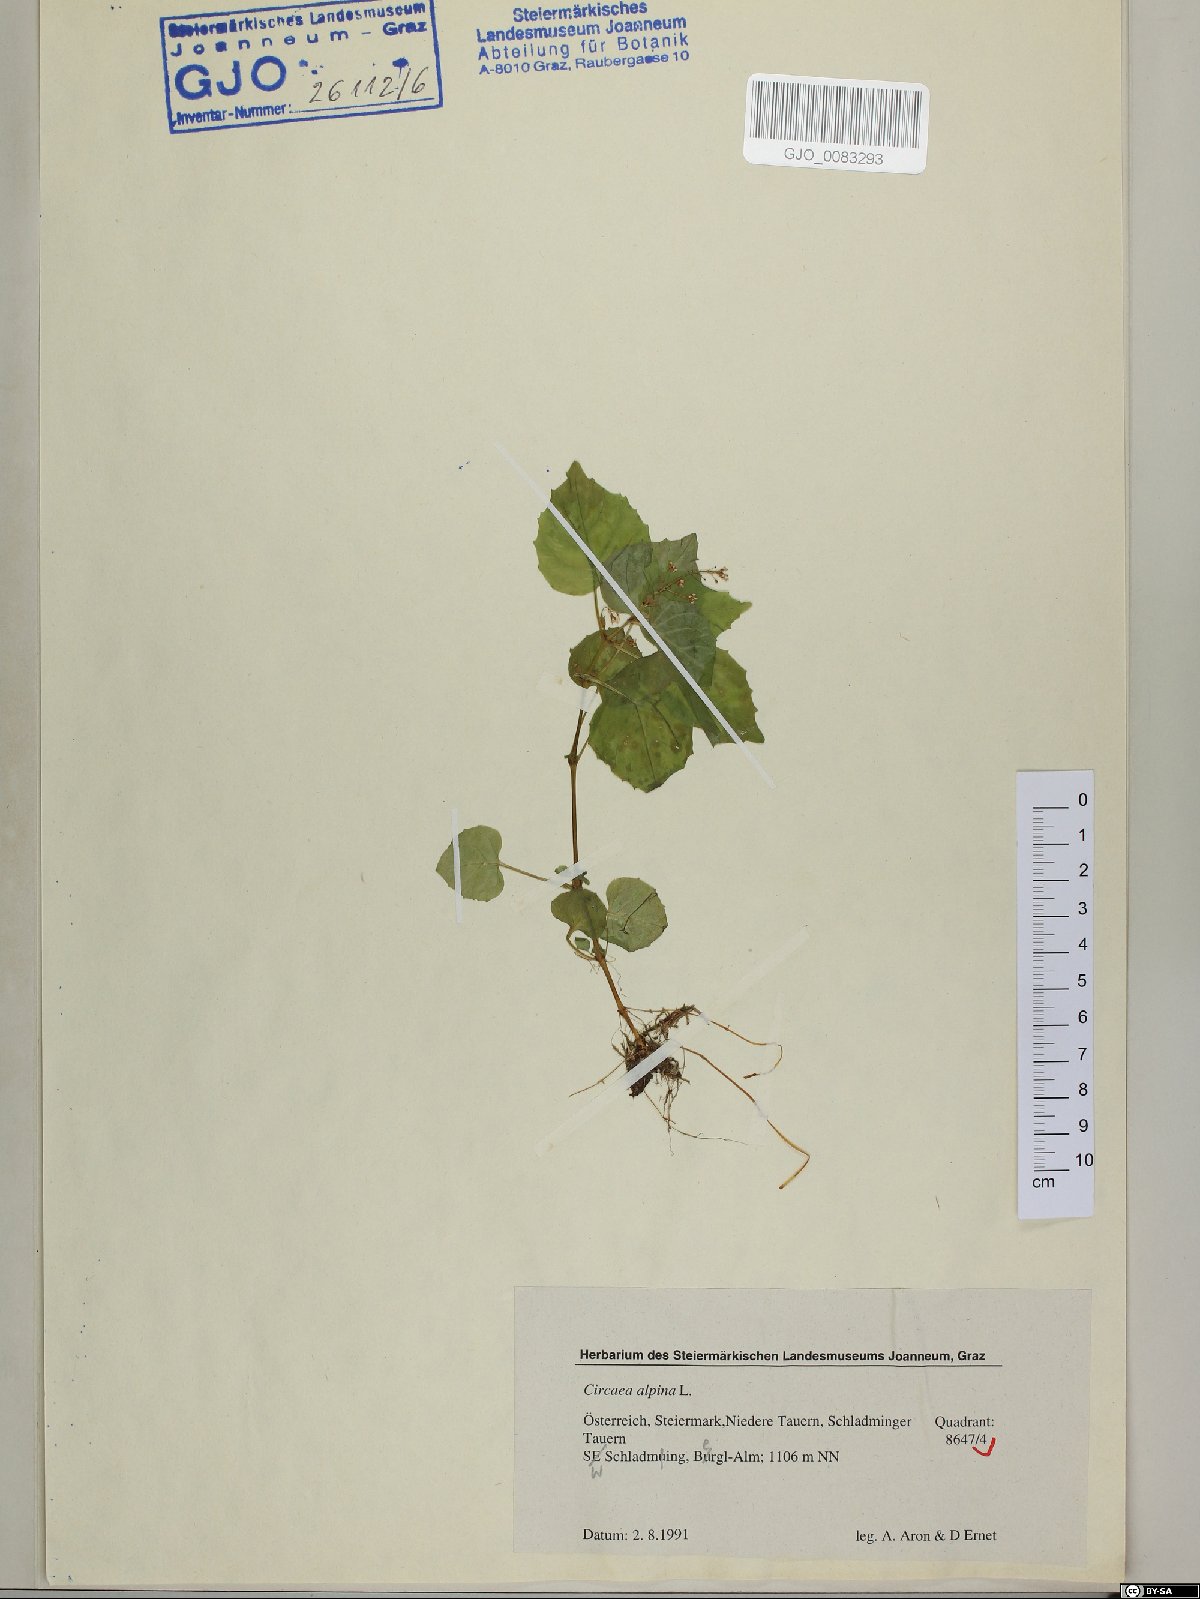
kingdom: Plantae
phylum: Tracheophyta
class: Magnoliopsida
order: Myrtales
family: Onagraceae
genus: Circaea
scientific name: Circaea alpina
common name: Alpine enchanter's-nightshade
